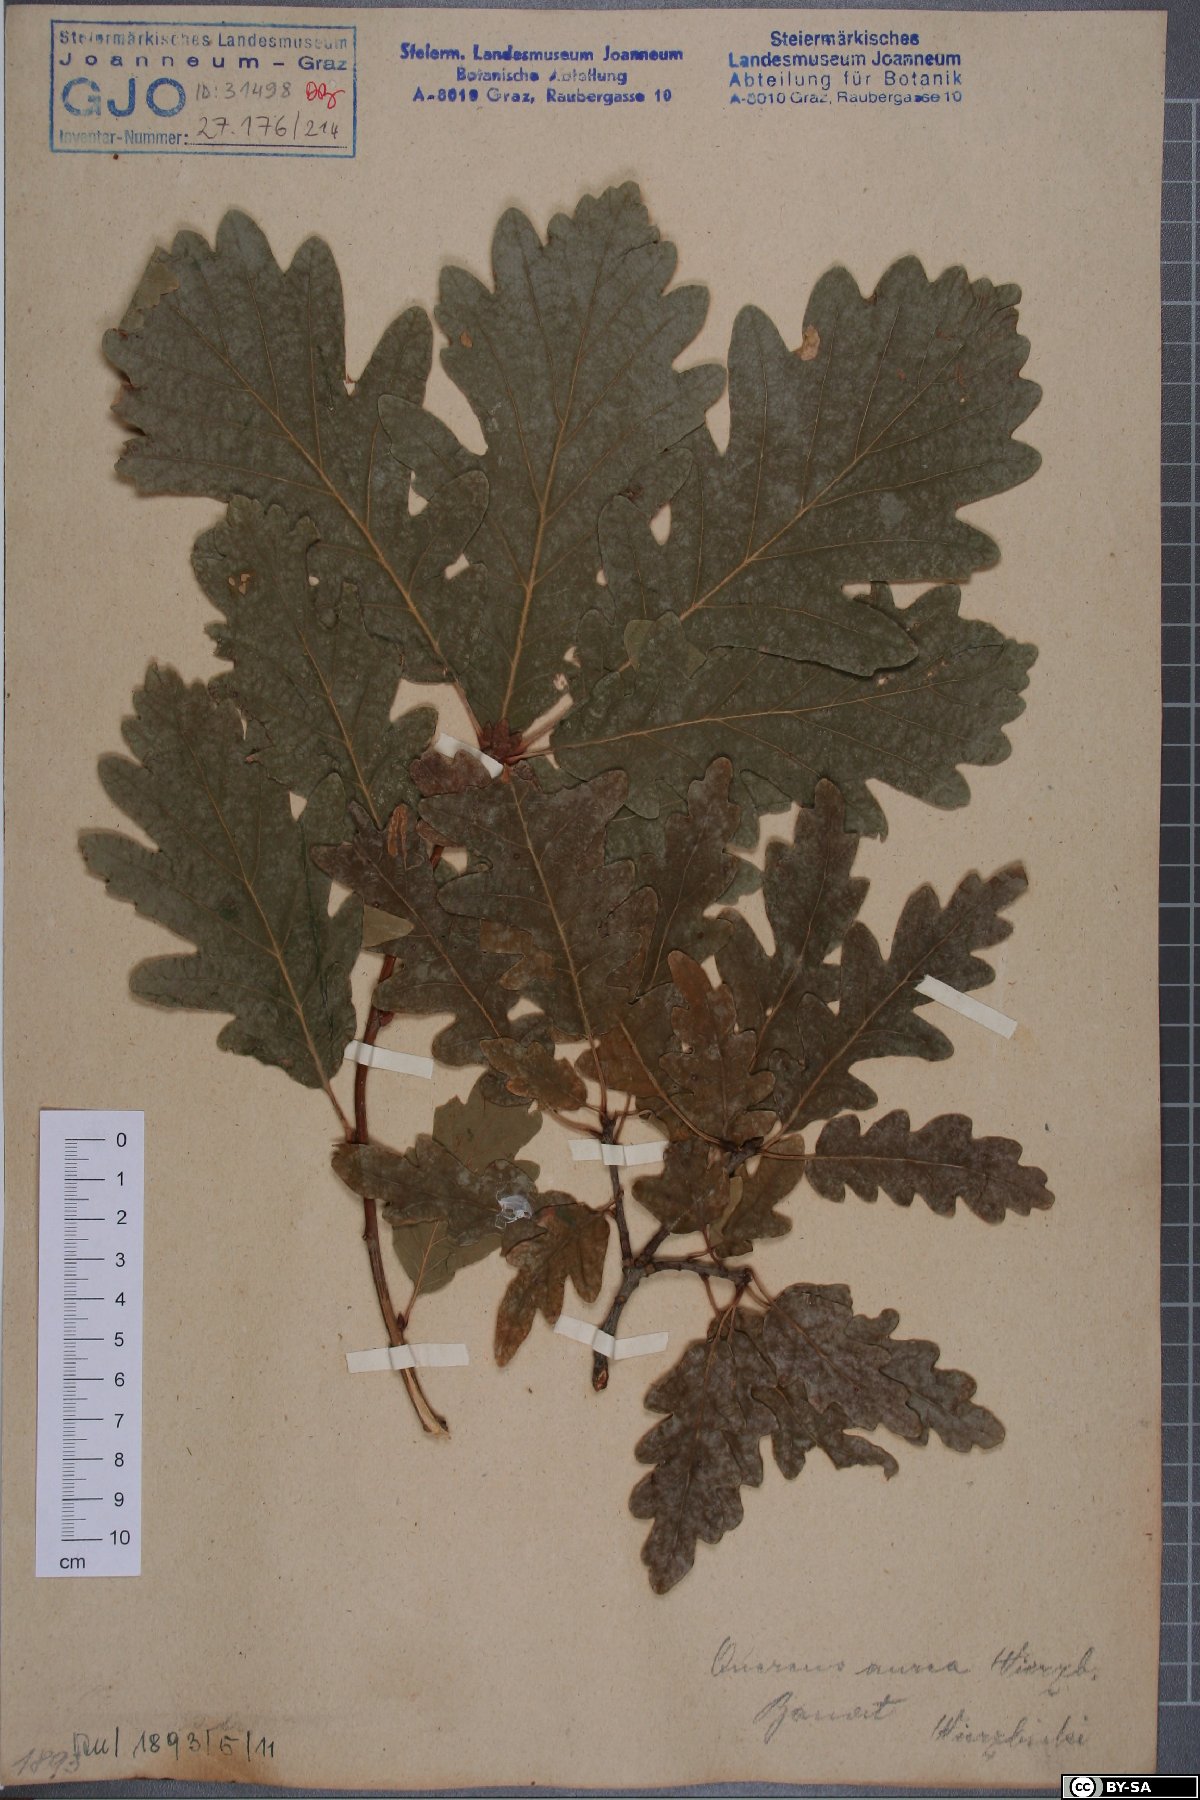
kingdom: Plantae
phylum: Tracheophyta
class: Magnoliopsida
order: Fagales
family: Fagaceae
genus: Quercus
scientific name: Quercus dalechampii
